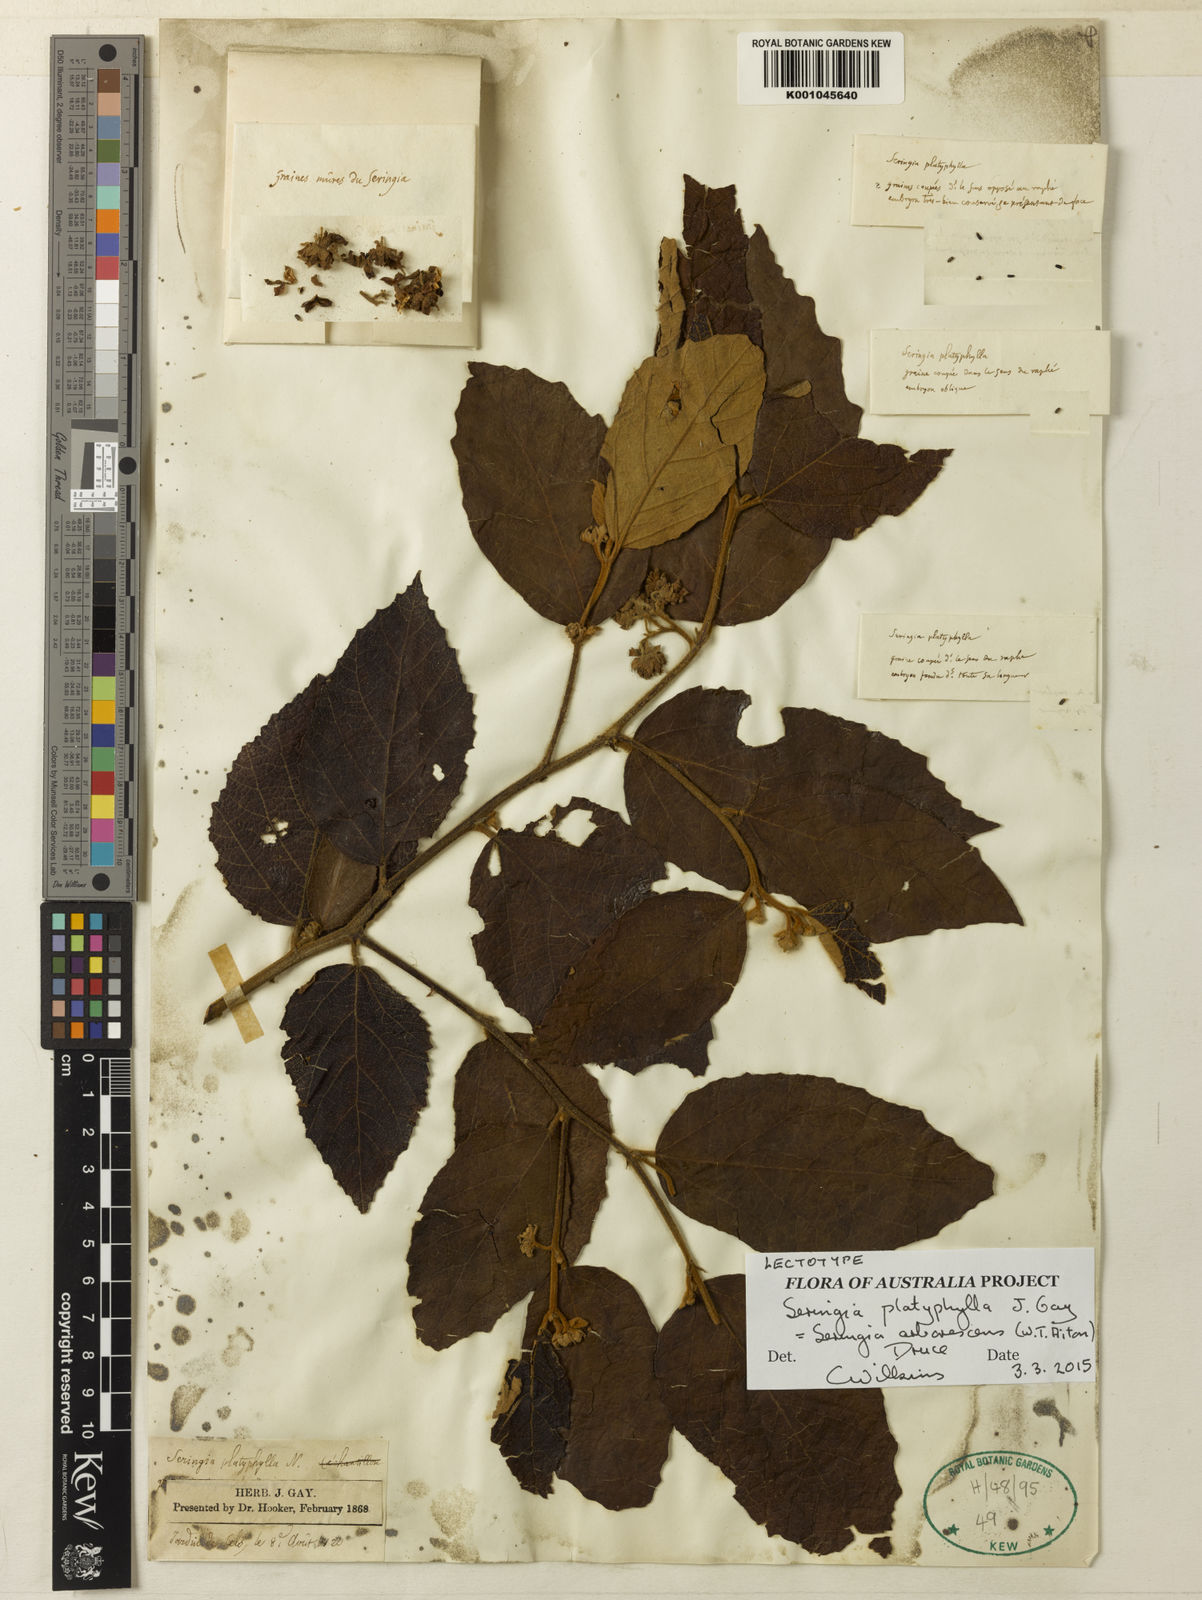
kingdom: Plantae
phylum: Tracheophyta
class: Magnoliopsida
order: Malvales
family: Malvaceae
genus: Seringia
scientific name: Seringia arborescens
